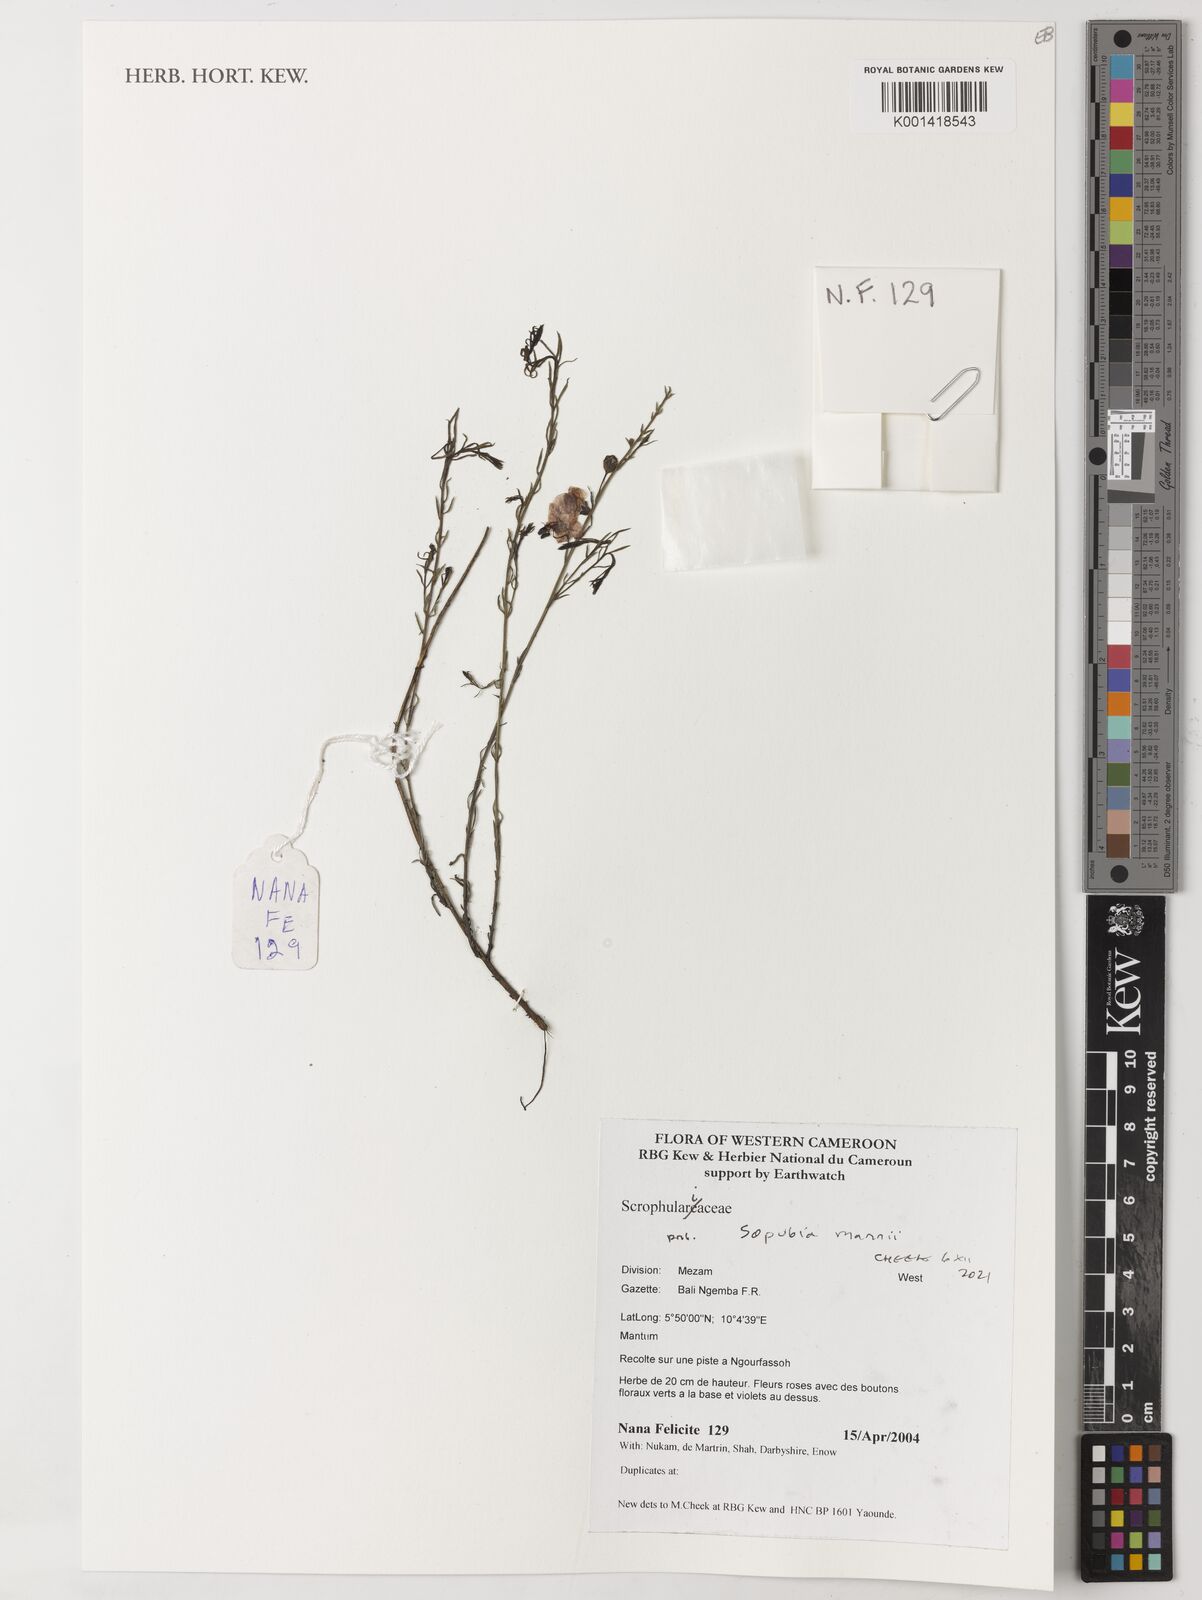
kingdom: Plantae
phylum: Tracheophyta
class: Magnoliopsida
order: Lamiales
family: Orobanchaceae
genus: Sopubia
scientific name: Sopubia mannii
